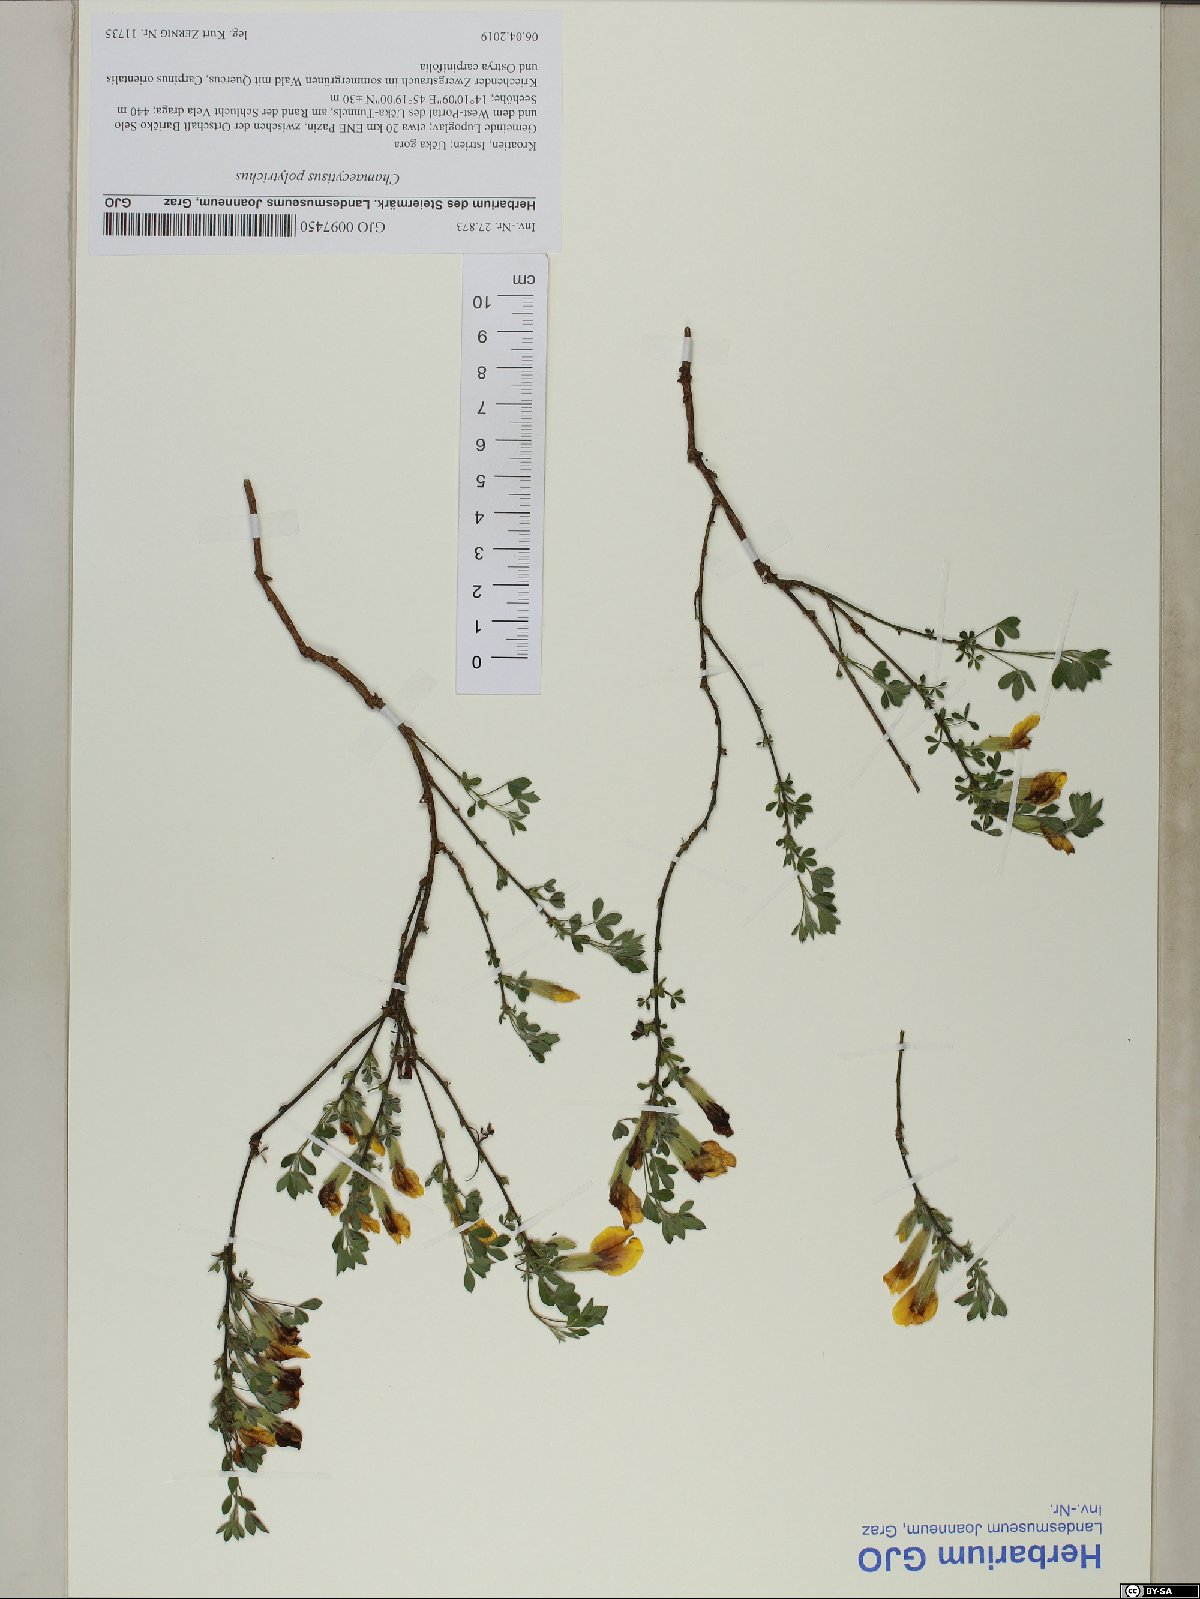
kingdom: Plantae
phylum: Tracheophyta
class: Magnoliopsida
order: Fabales
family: Fabaceae
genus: Chamaecytisus
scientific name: Chamaecytisus hirsutus
